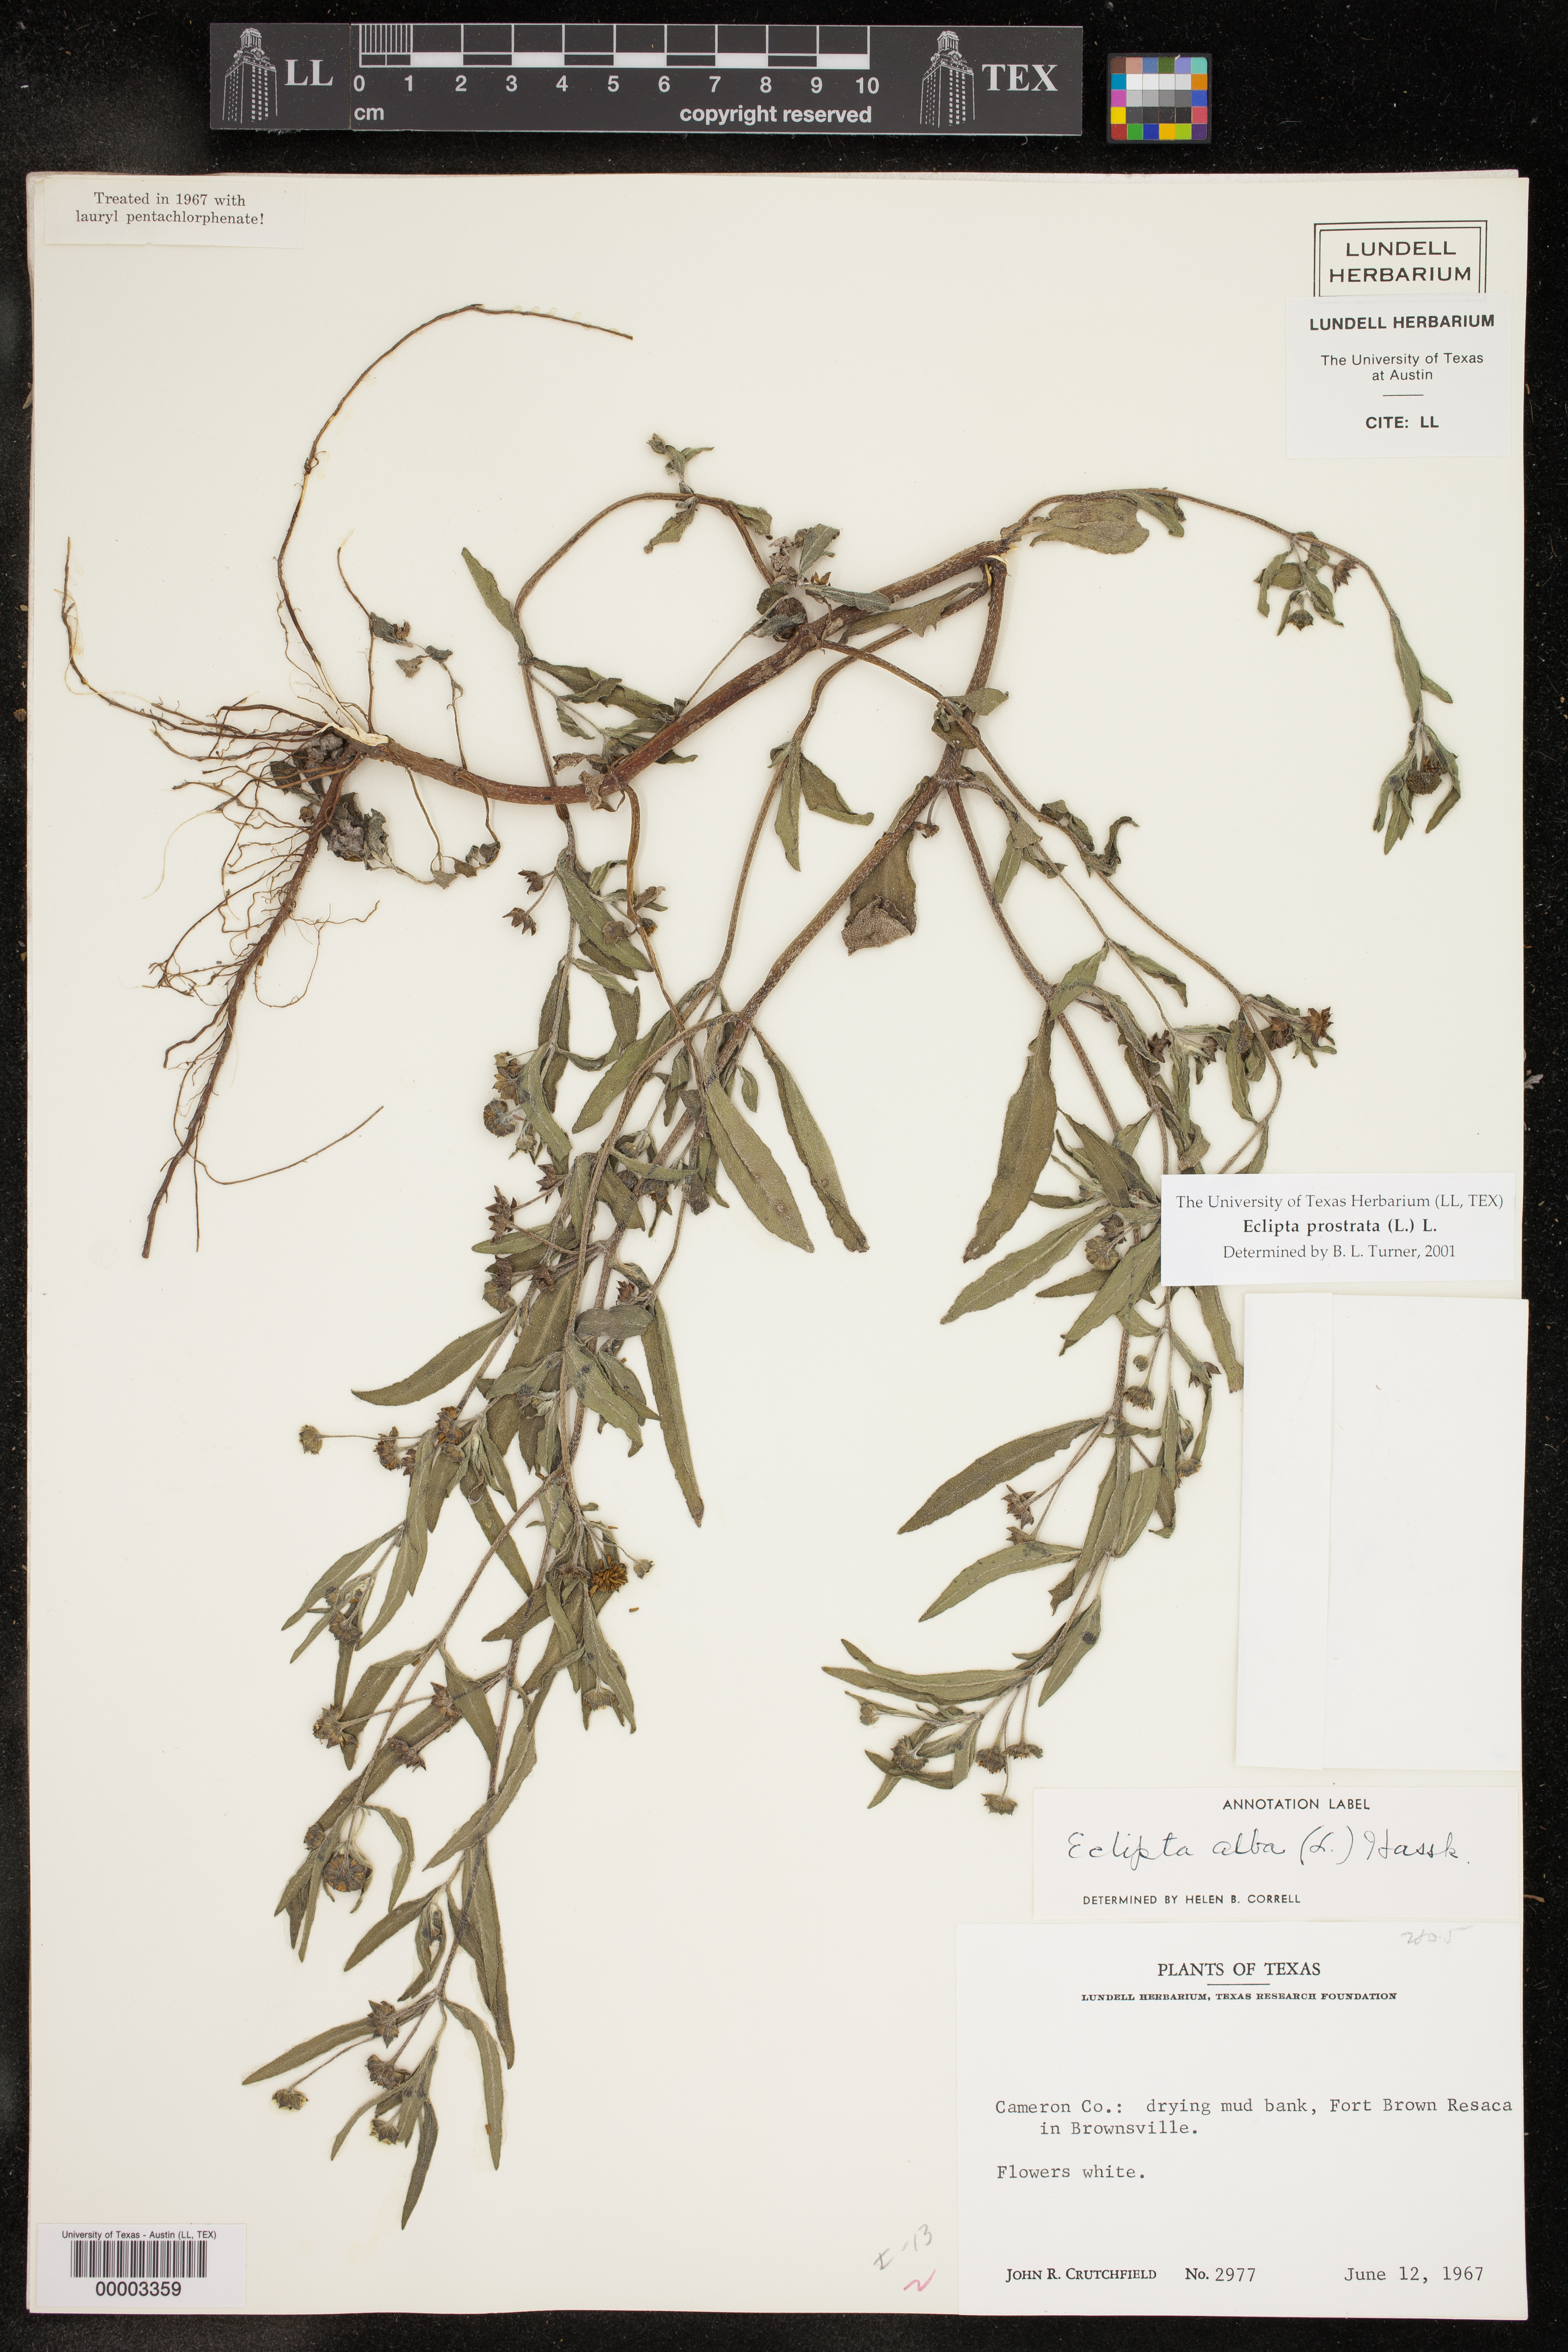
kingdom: Plantae
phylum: Tracheophyta
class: Magnoliopsida
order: Asterales
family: Asteraceae
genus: Eclipta
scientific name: Eclipta prostrata
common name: False daisy
